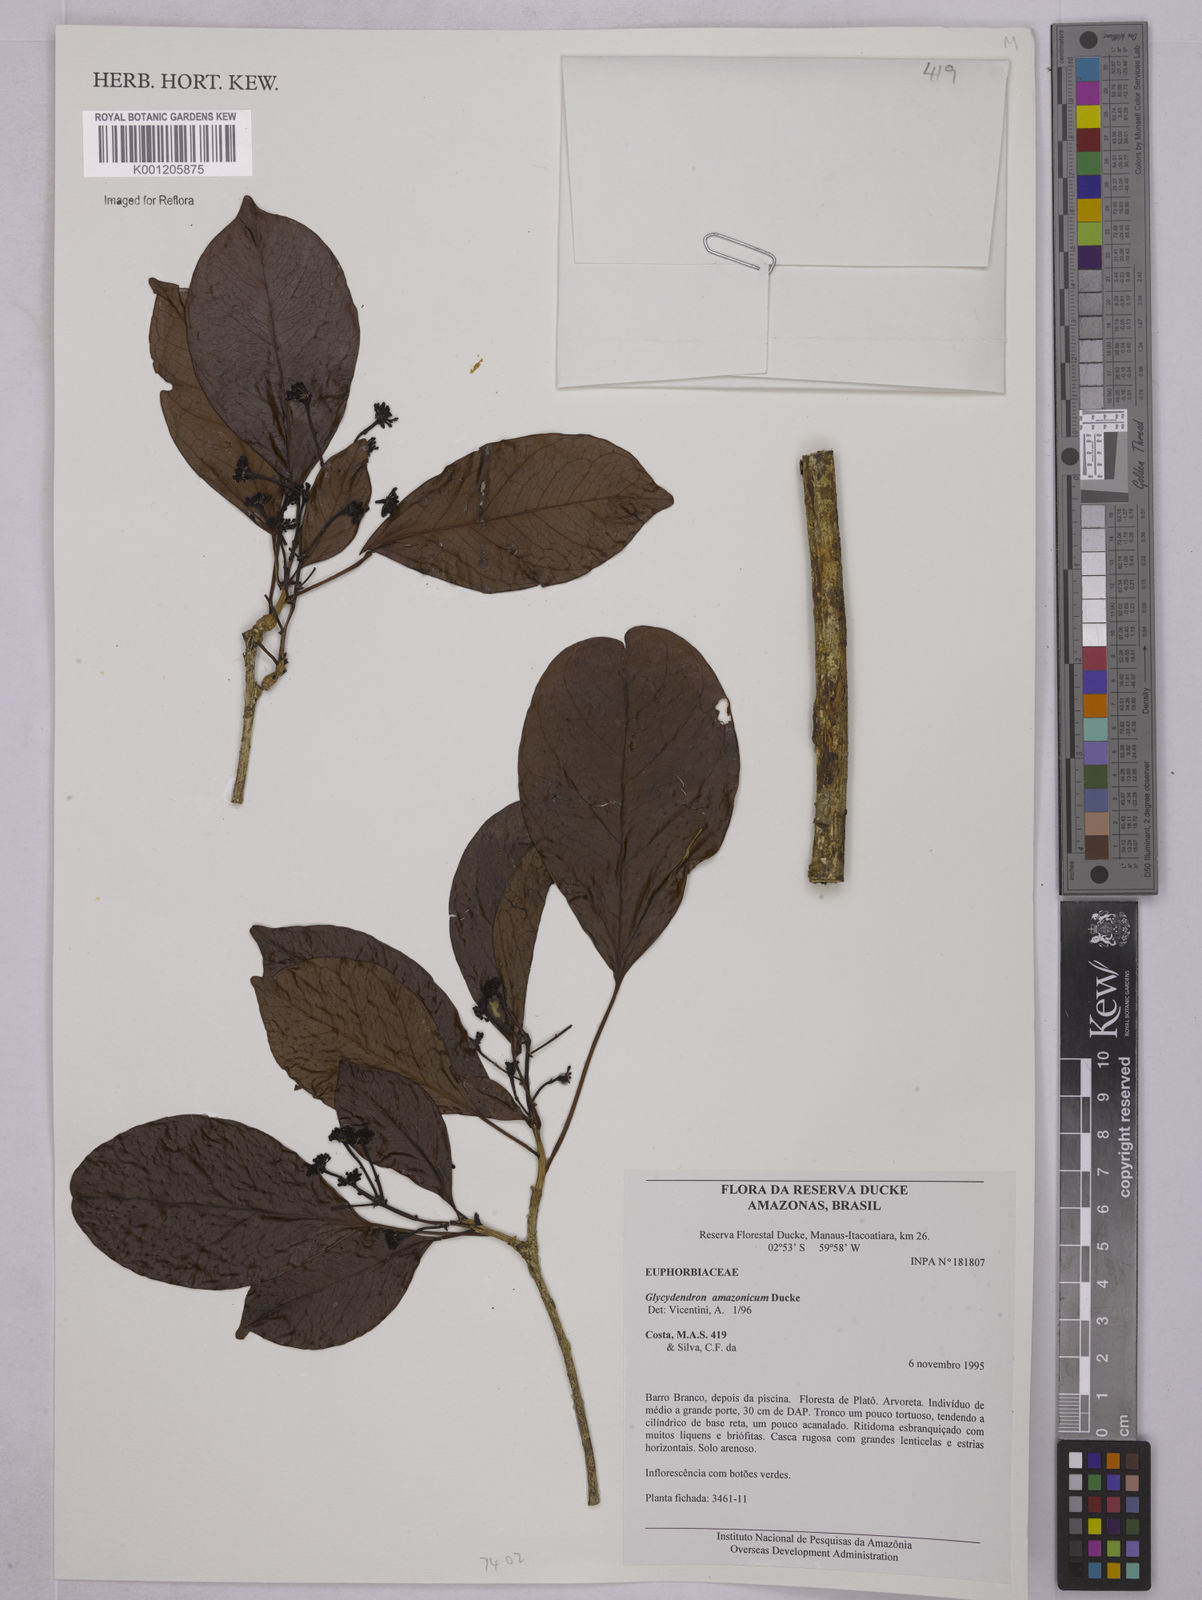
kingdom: Plantae
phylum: Tracheophyta
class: Magnoliopsida
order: Malpighiales
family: Euphorbiaceae
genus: Glycydendron
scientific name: Glycydendron amazonicum
